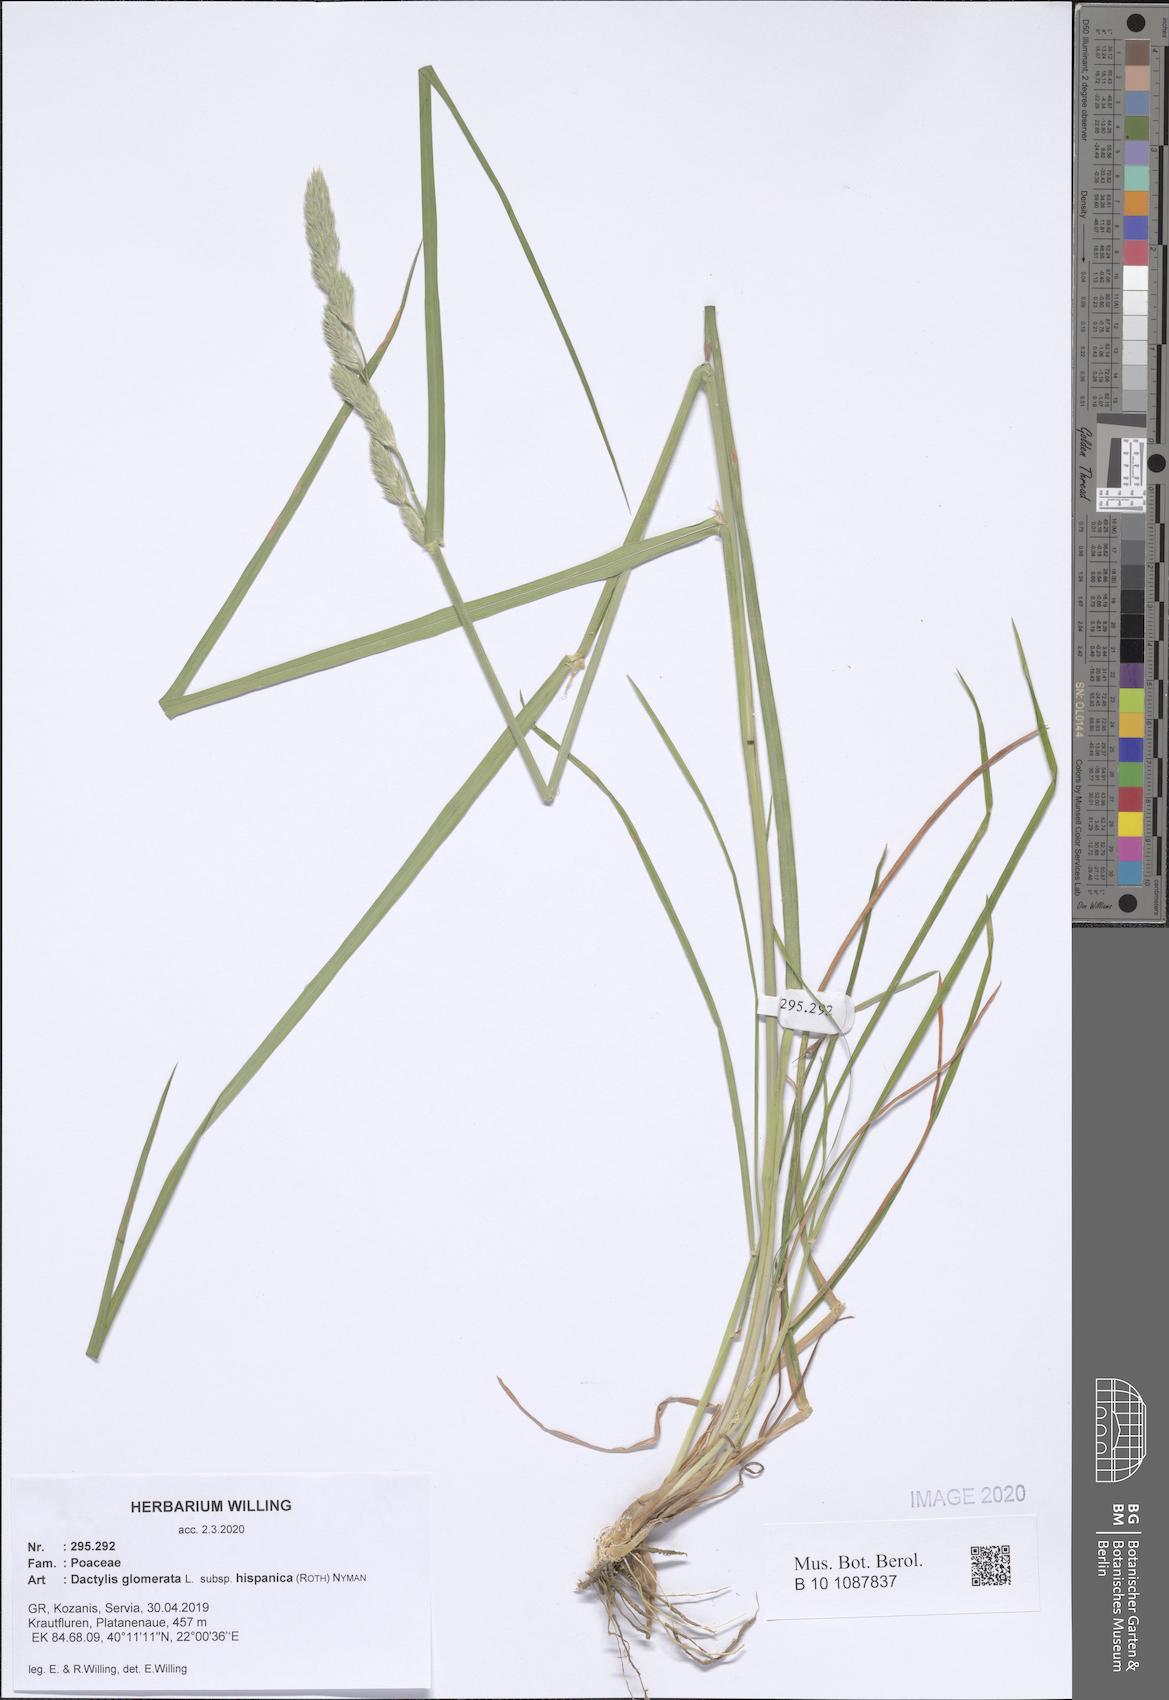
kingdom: Plantae
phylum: Tracheophyta
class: Liliopsida
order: Poales
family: Poaceae
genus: Dactylis
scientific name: Dactylis glomerata
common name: Orchardgrass
